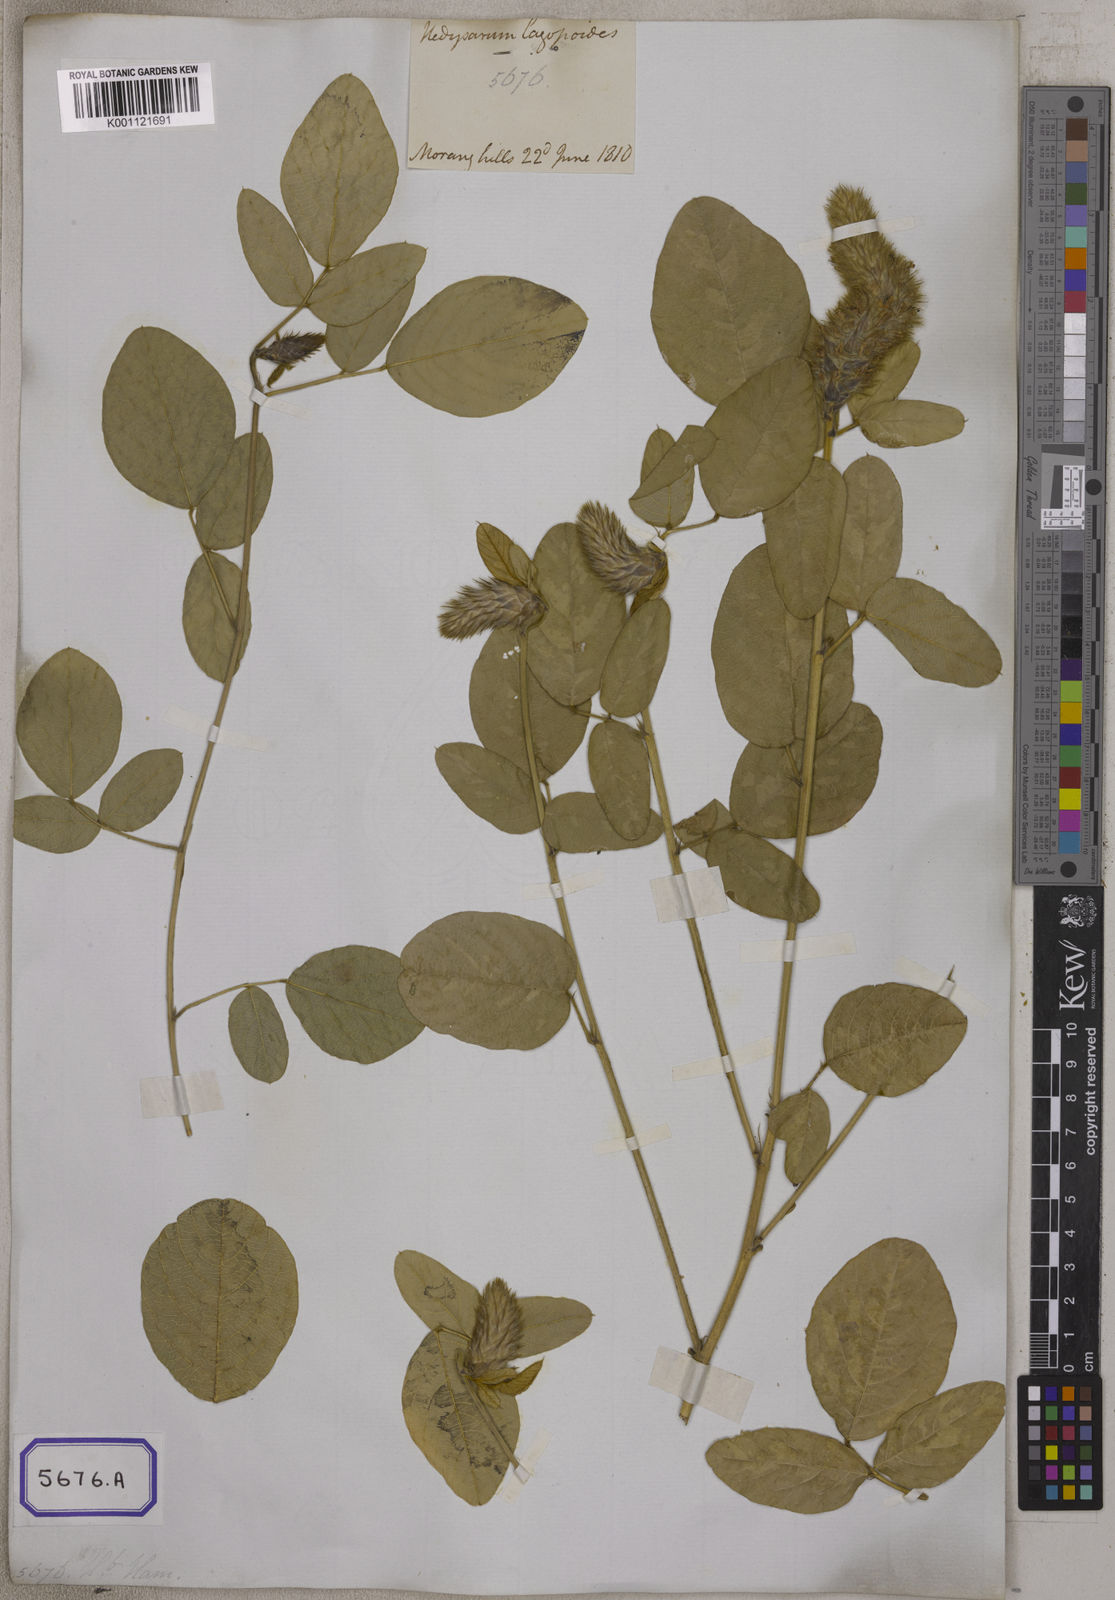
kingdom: Plantae
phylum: Tracheophyta
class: Magnoliopsida
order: Fabales
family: Fabaceae
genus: Uraria
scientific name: Uraria lagopodioides
